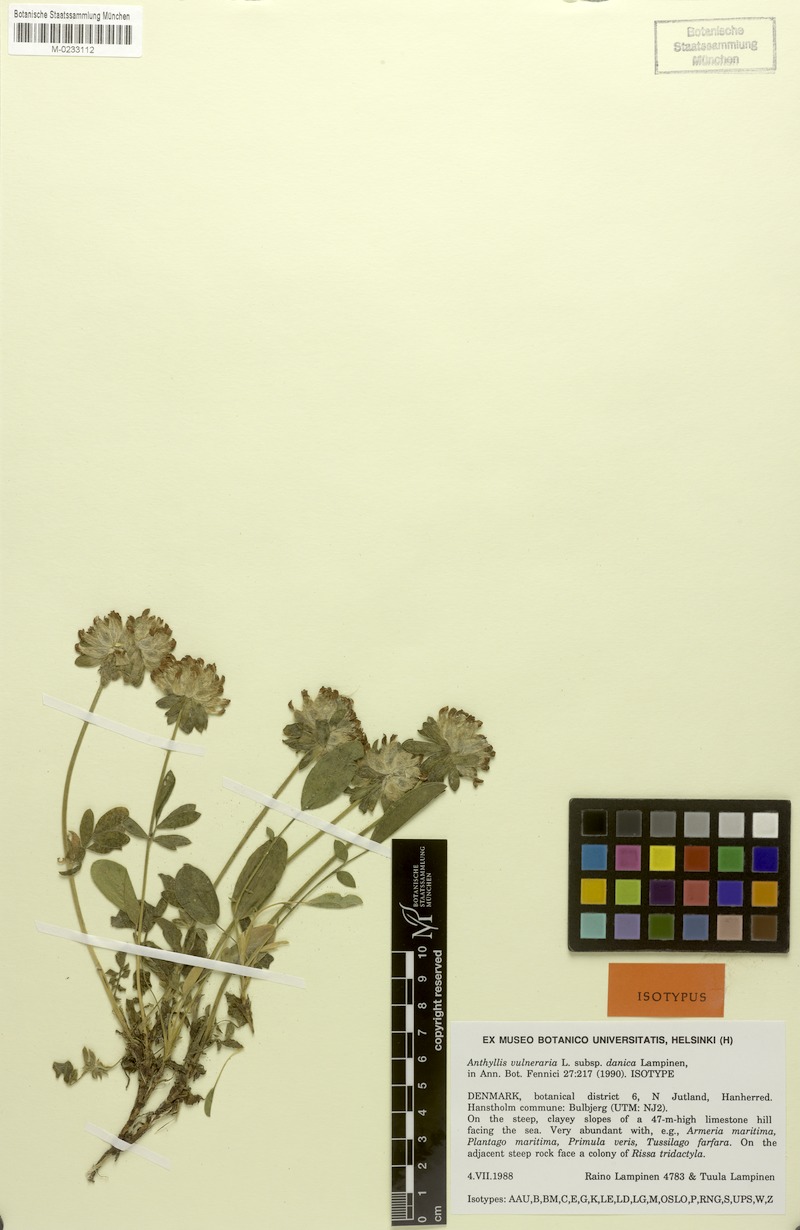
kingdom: Plantae
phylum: Tracheophyta
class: Magnoliopsida
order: Fabales
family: Fabaceae
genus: Anthyllis
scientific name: Anthyllis vulneraria
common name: Kidney vetch
